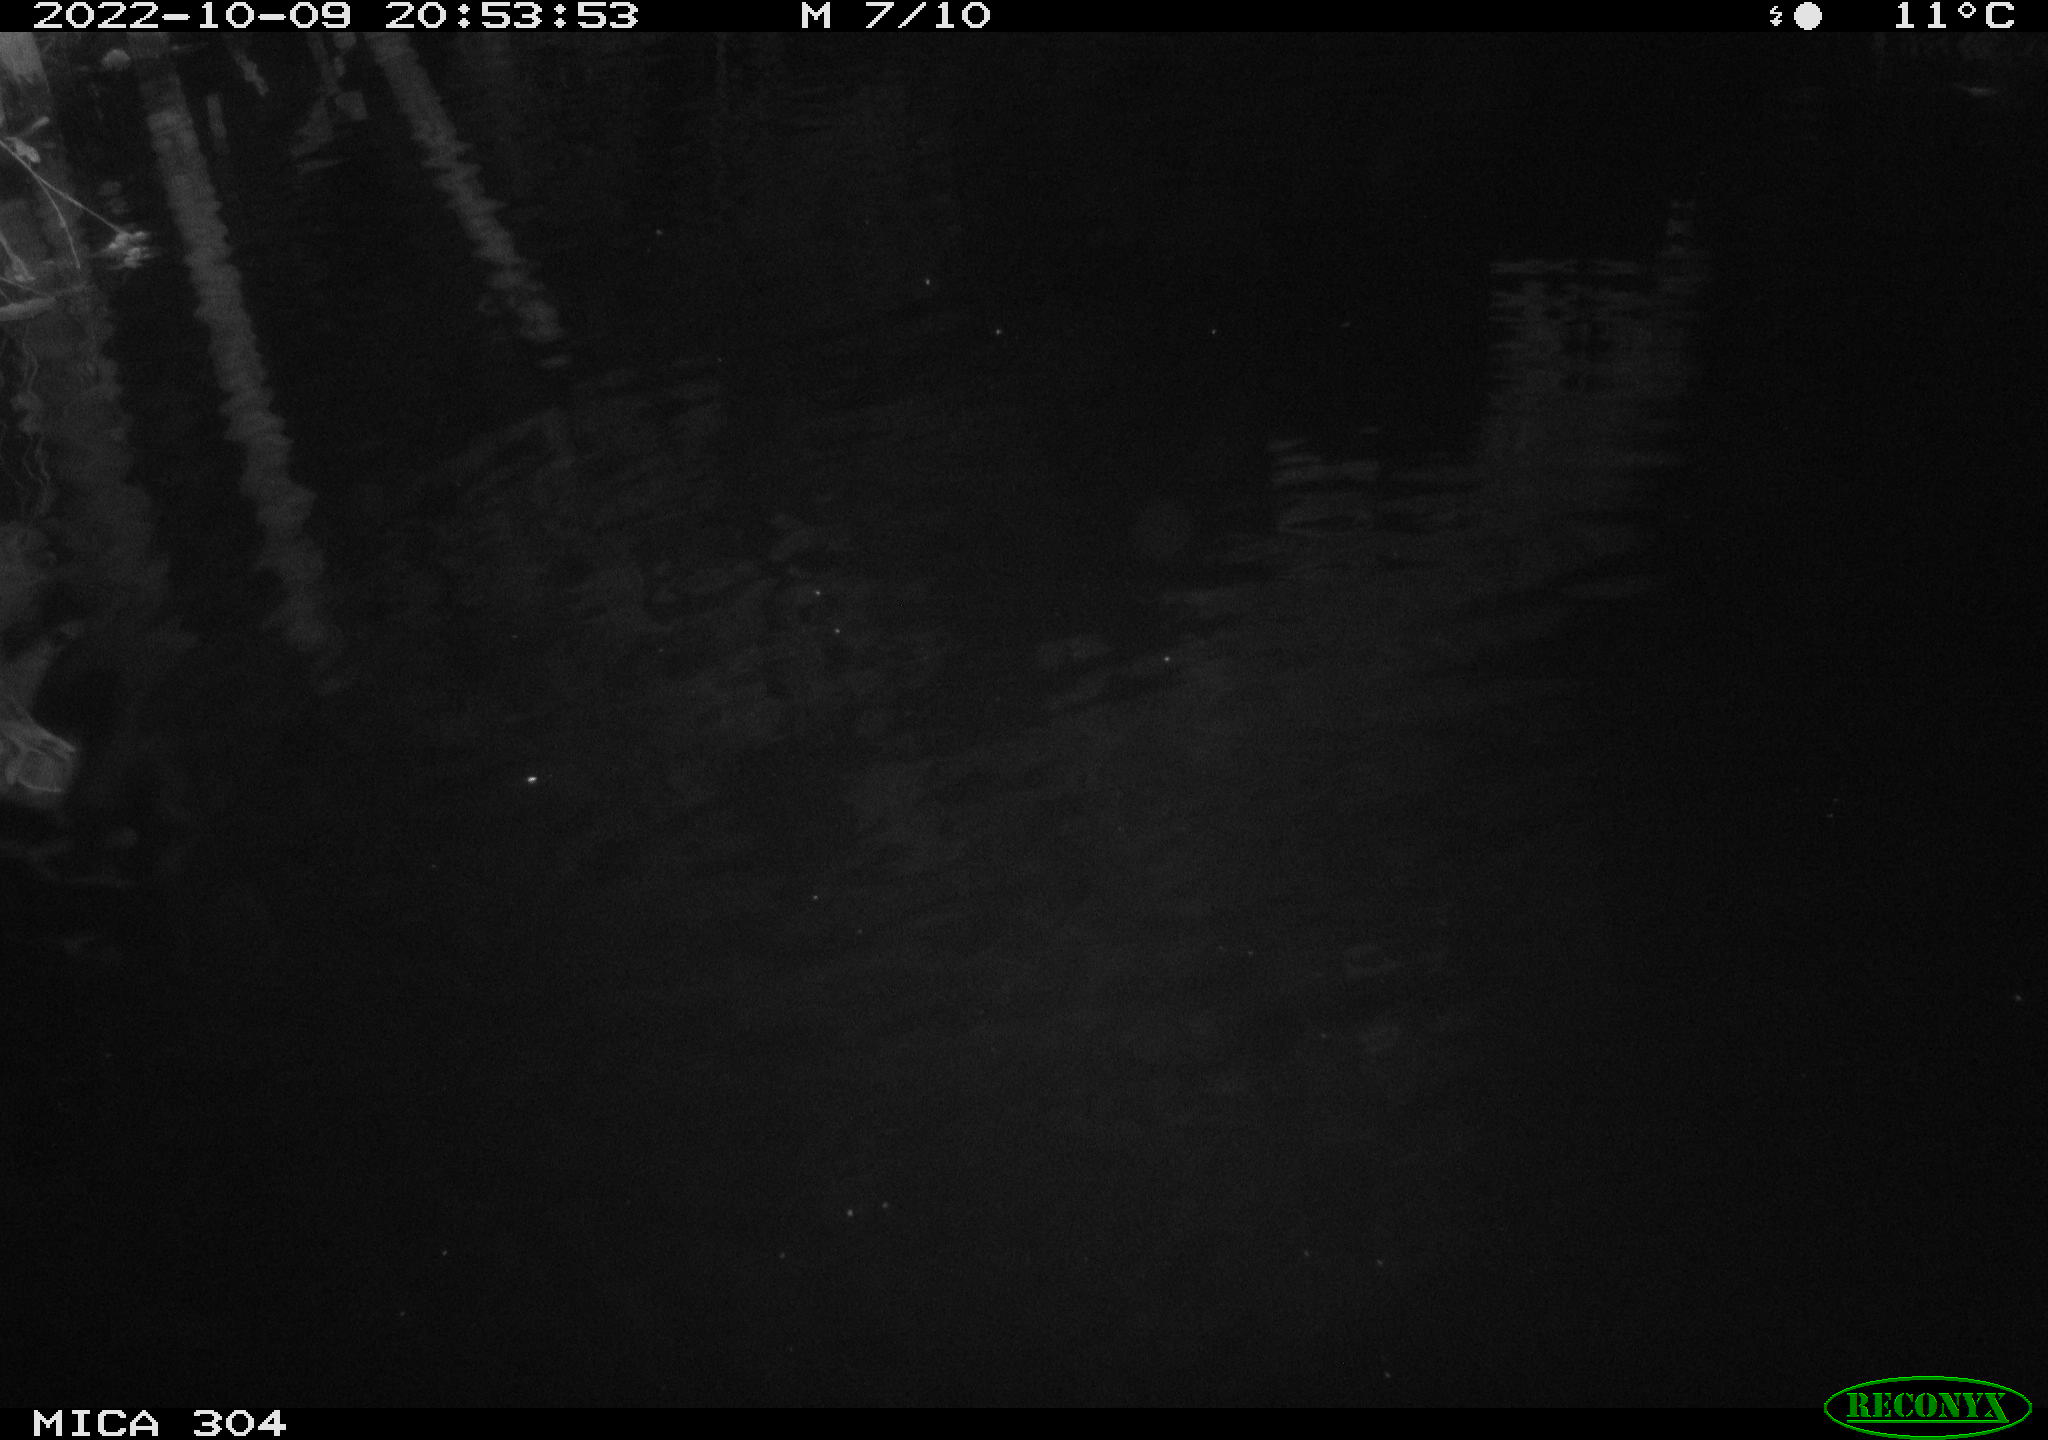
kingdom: Animalia
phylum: Chordata
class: Mammalia
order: Rodentia
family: Muridae
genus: Rattus
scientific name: Rattus norvegicus
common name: Brown rat
